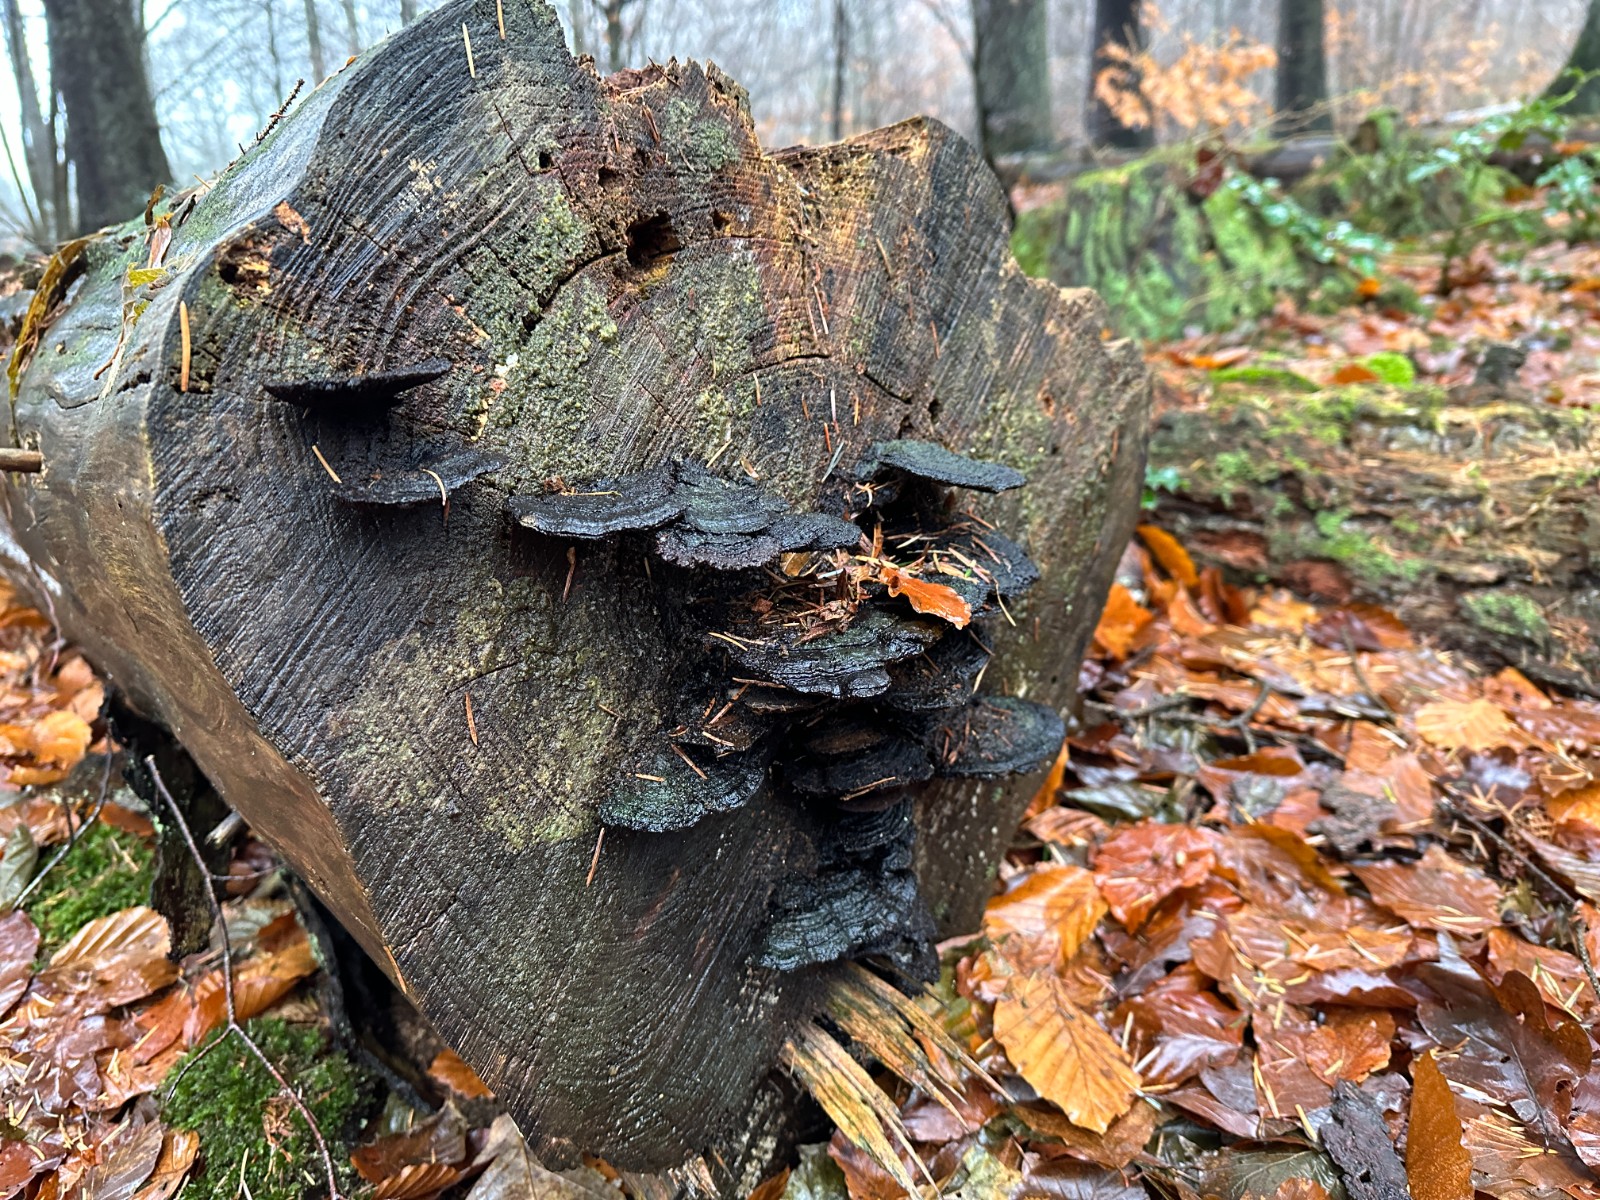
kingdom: Fungi
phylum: Basidiomycota
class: Agaricomycetes
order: Polyporales
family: Ischnodermataceae
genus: Ischnoderma
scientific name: Ischnoderma benzoinum
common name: gran-tjæreporesvamp
